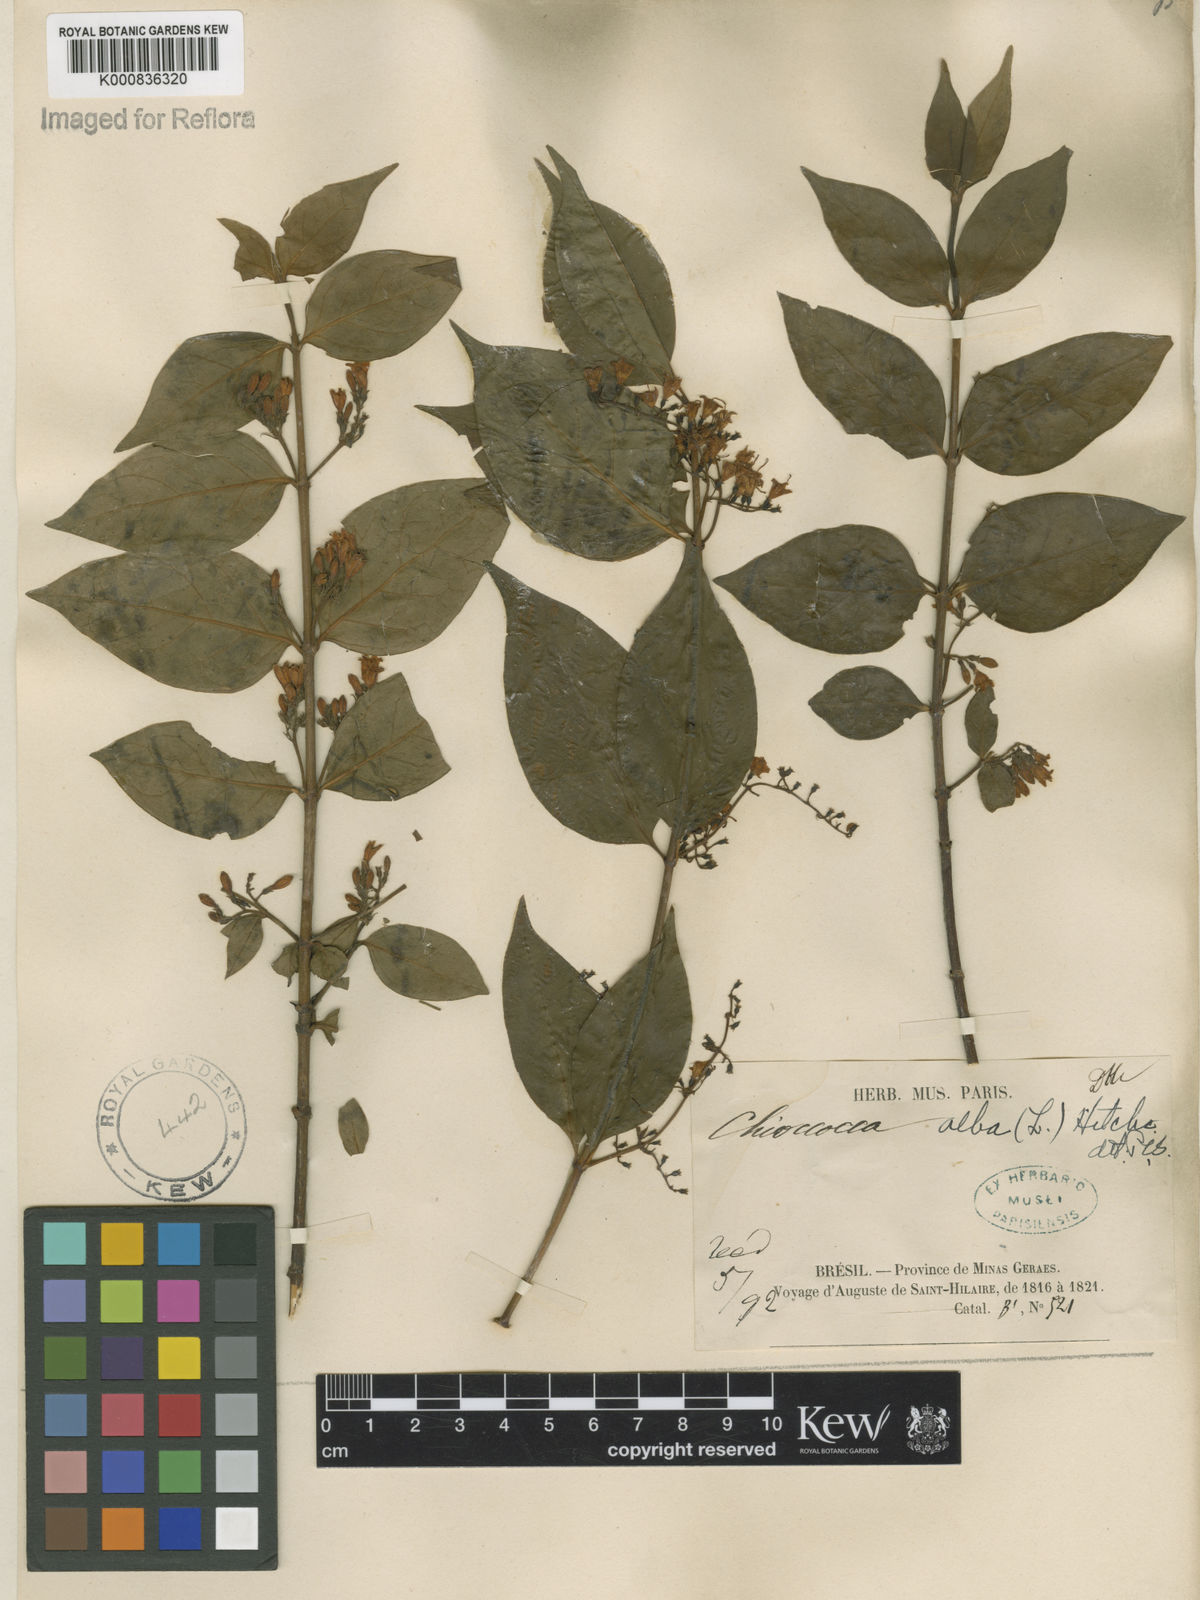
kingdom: Plantae
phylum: Tracheophyta
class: Magnoliopsida
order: Gentianales
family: Rubiaceae
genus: Chiococca
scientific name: Chiococca alba
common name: Snowberry
